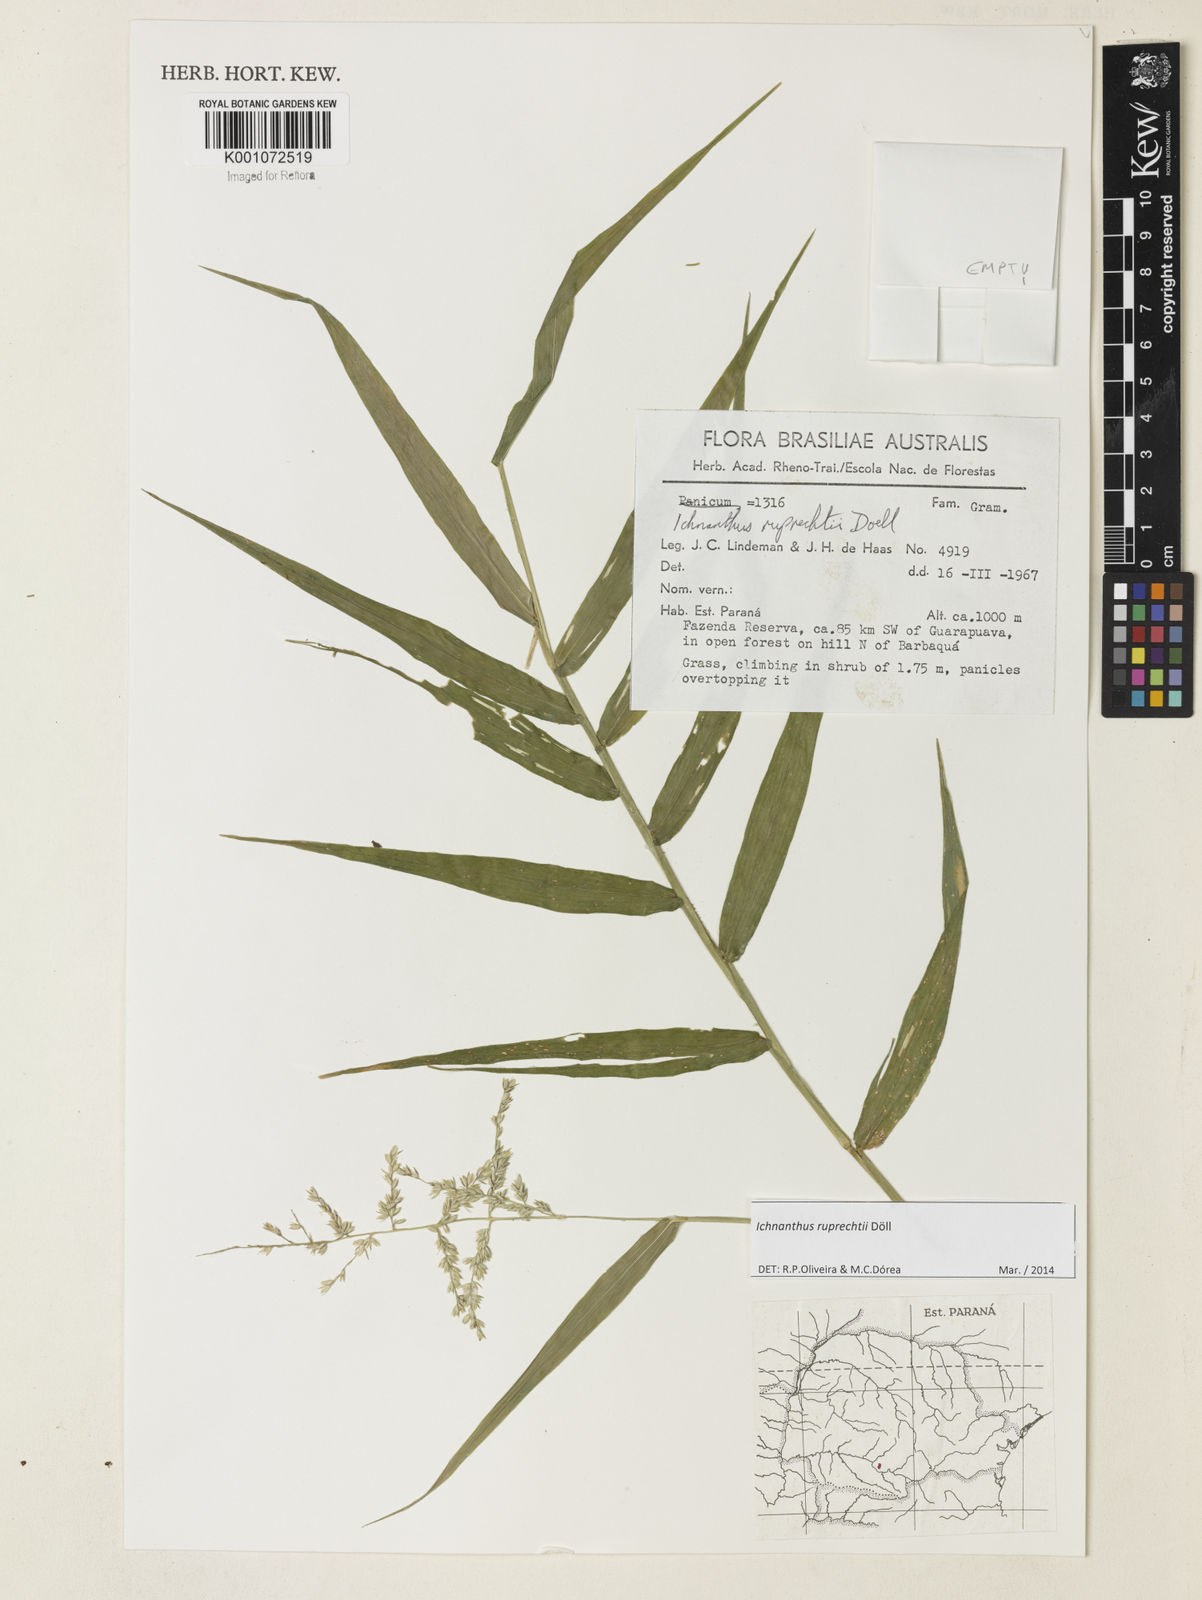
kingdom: Plantae
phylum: Tracheophyta
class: Liliopsida
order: Poales
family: Poaceae
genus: Ichnanthus
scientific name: Ichnanthus
